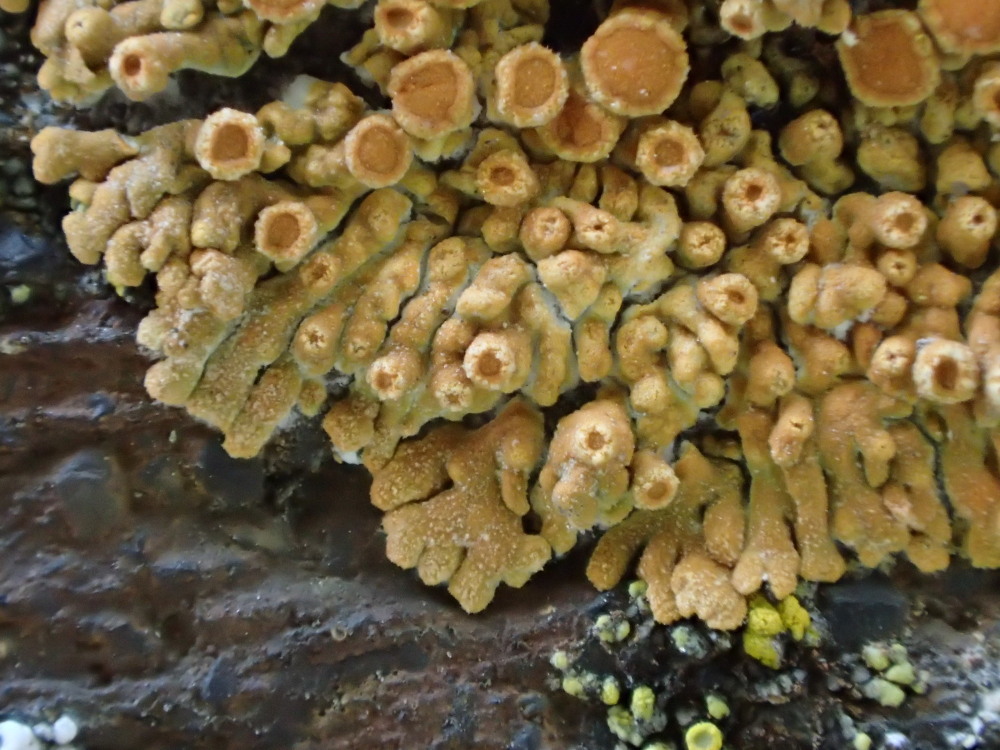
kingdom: Fungi
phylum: Ascomycota
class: Lecanoromycetes
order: Teloschistales
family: Teloschistaceae
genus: Calogaya
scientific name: Calogaya saxicola
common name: mur-orangelav
